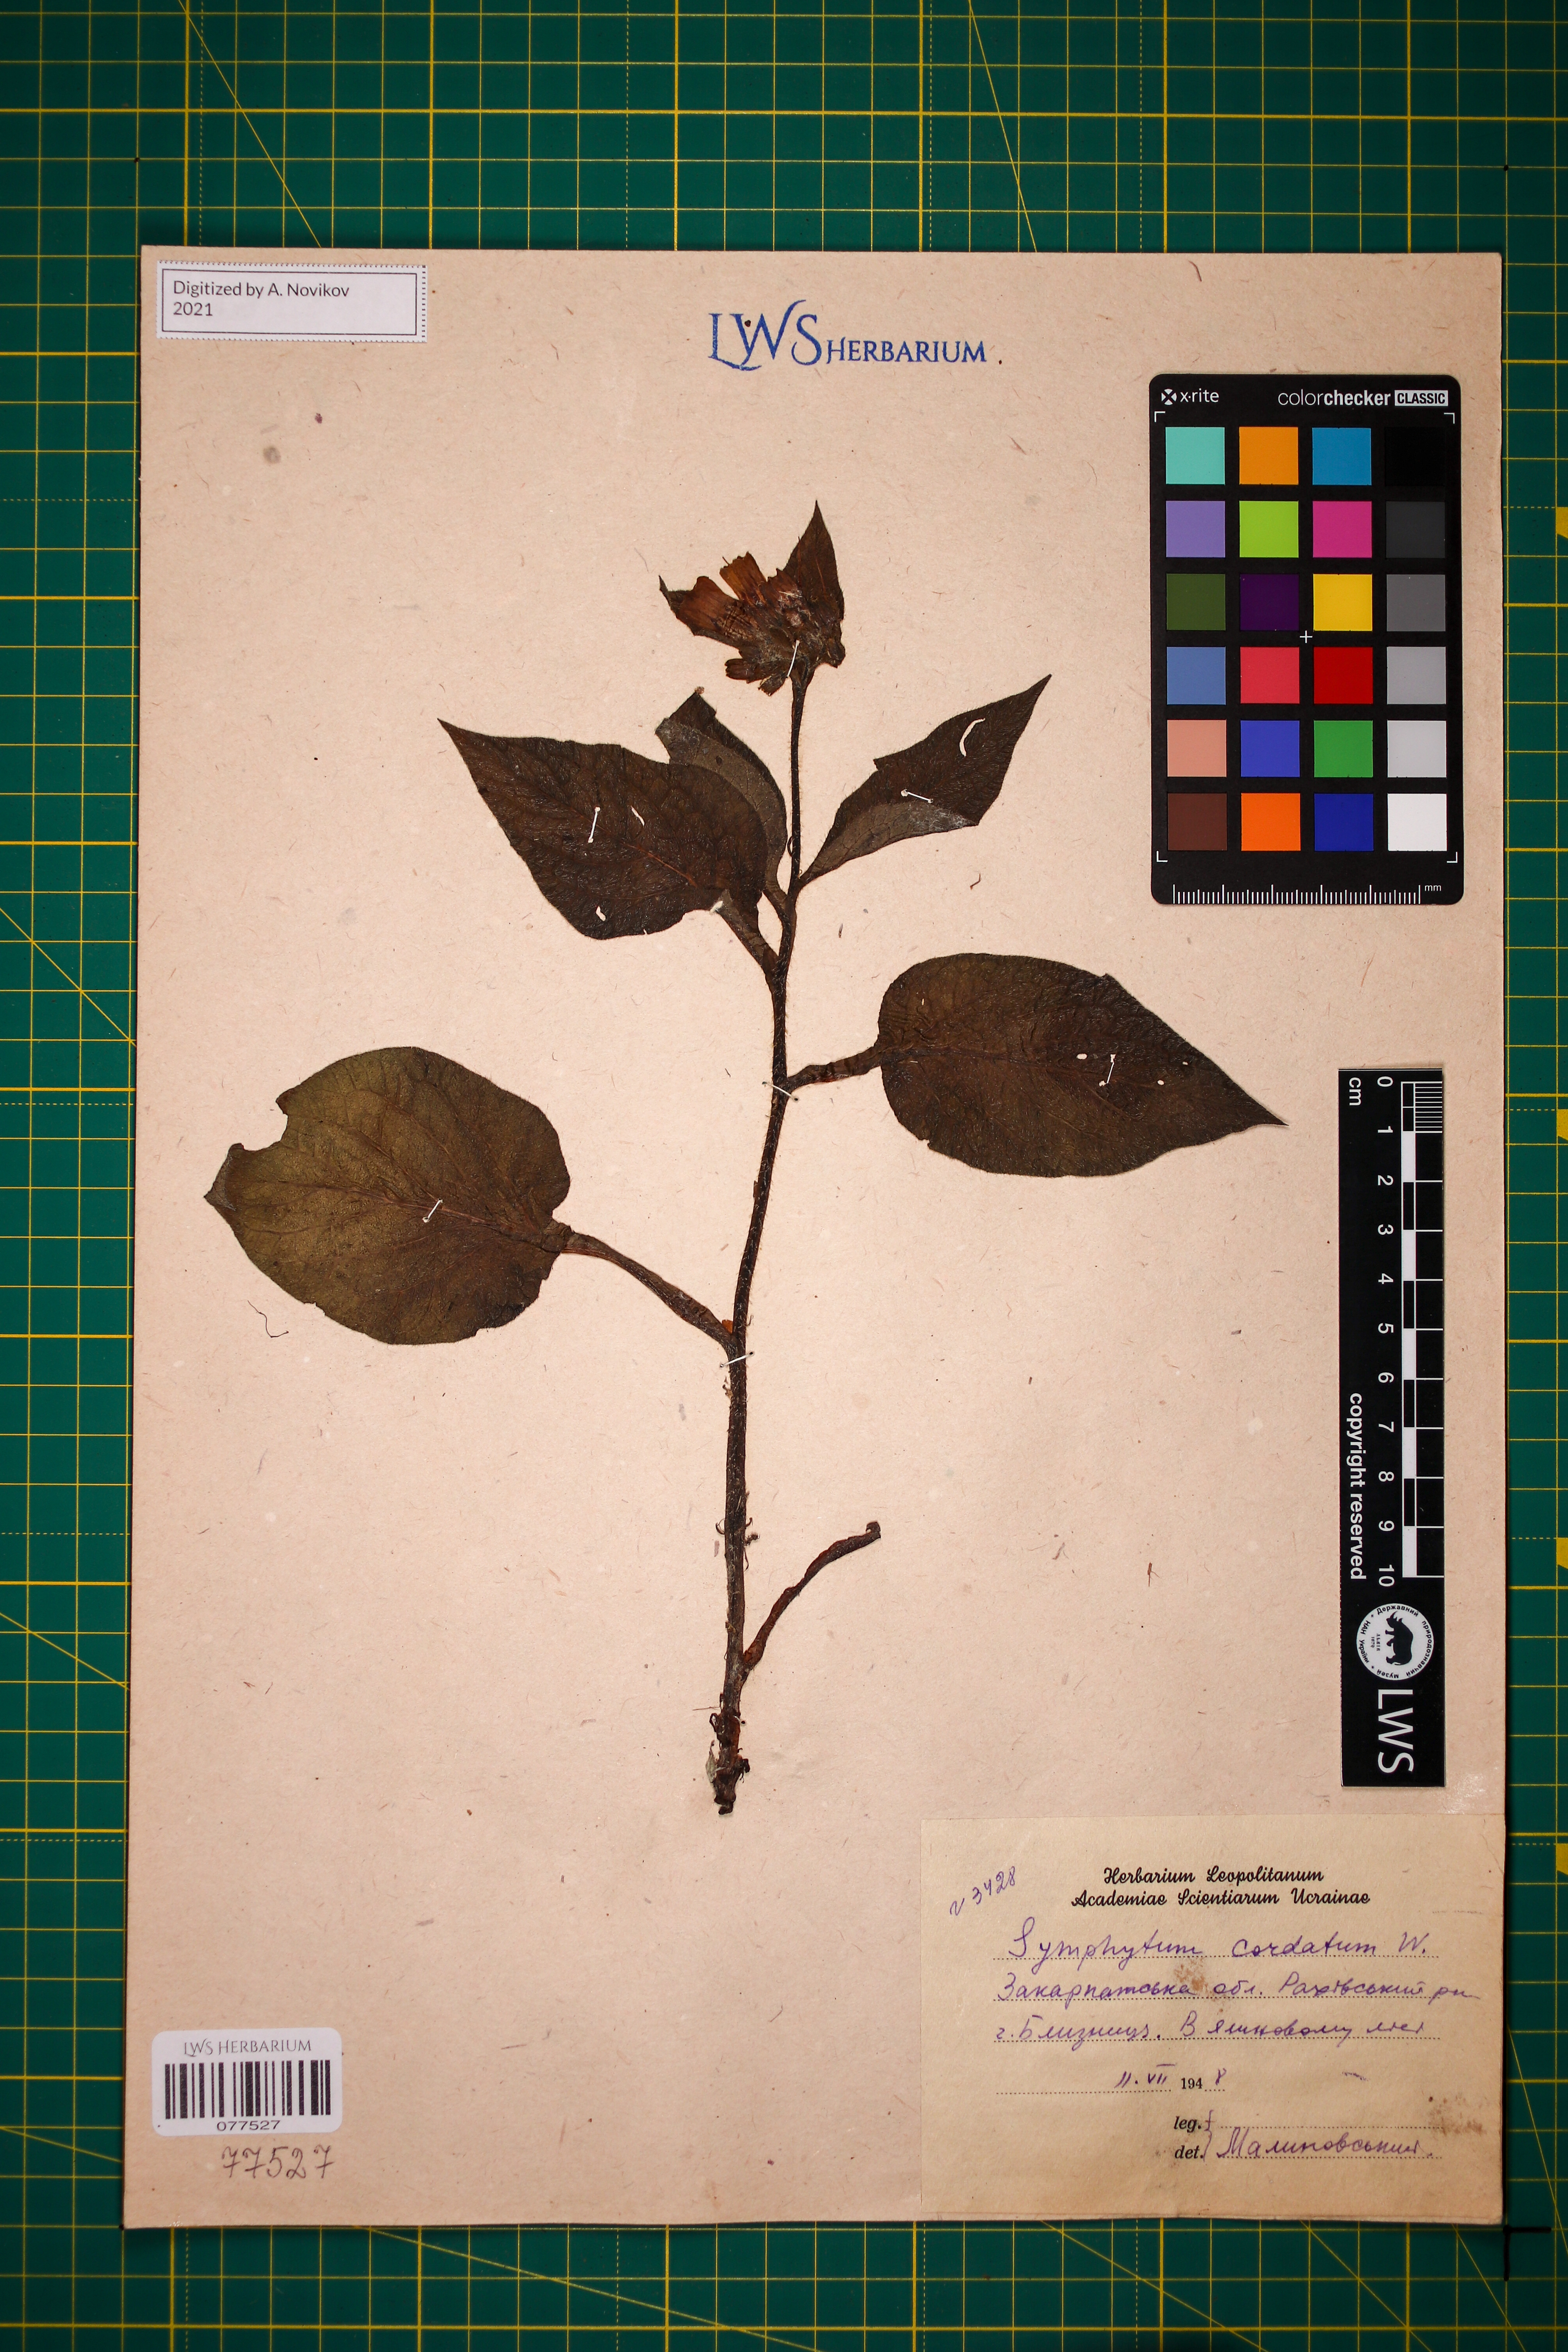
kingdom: Plantae
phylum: Tracheophyta
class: Magnoliopsida
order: Boraginales
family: Boraginaceae
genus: Symphytum
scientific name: Symphytum cordatum
